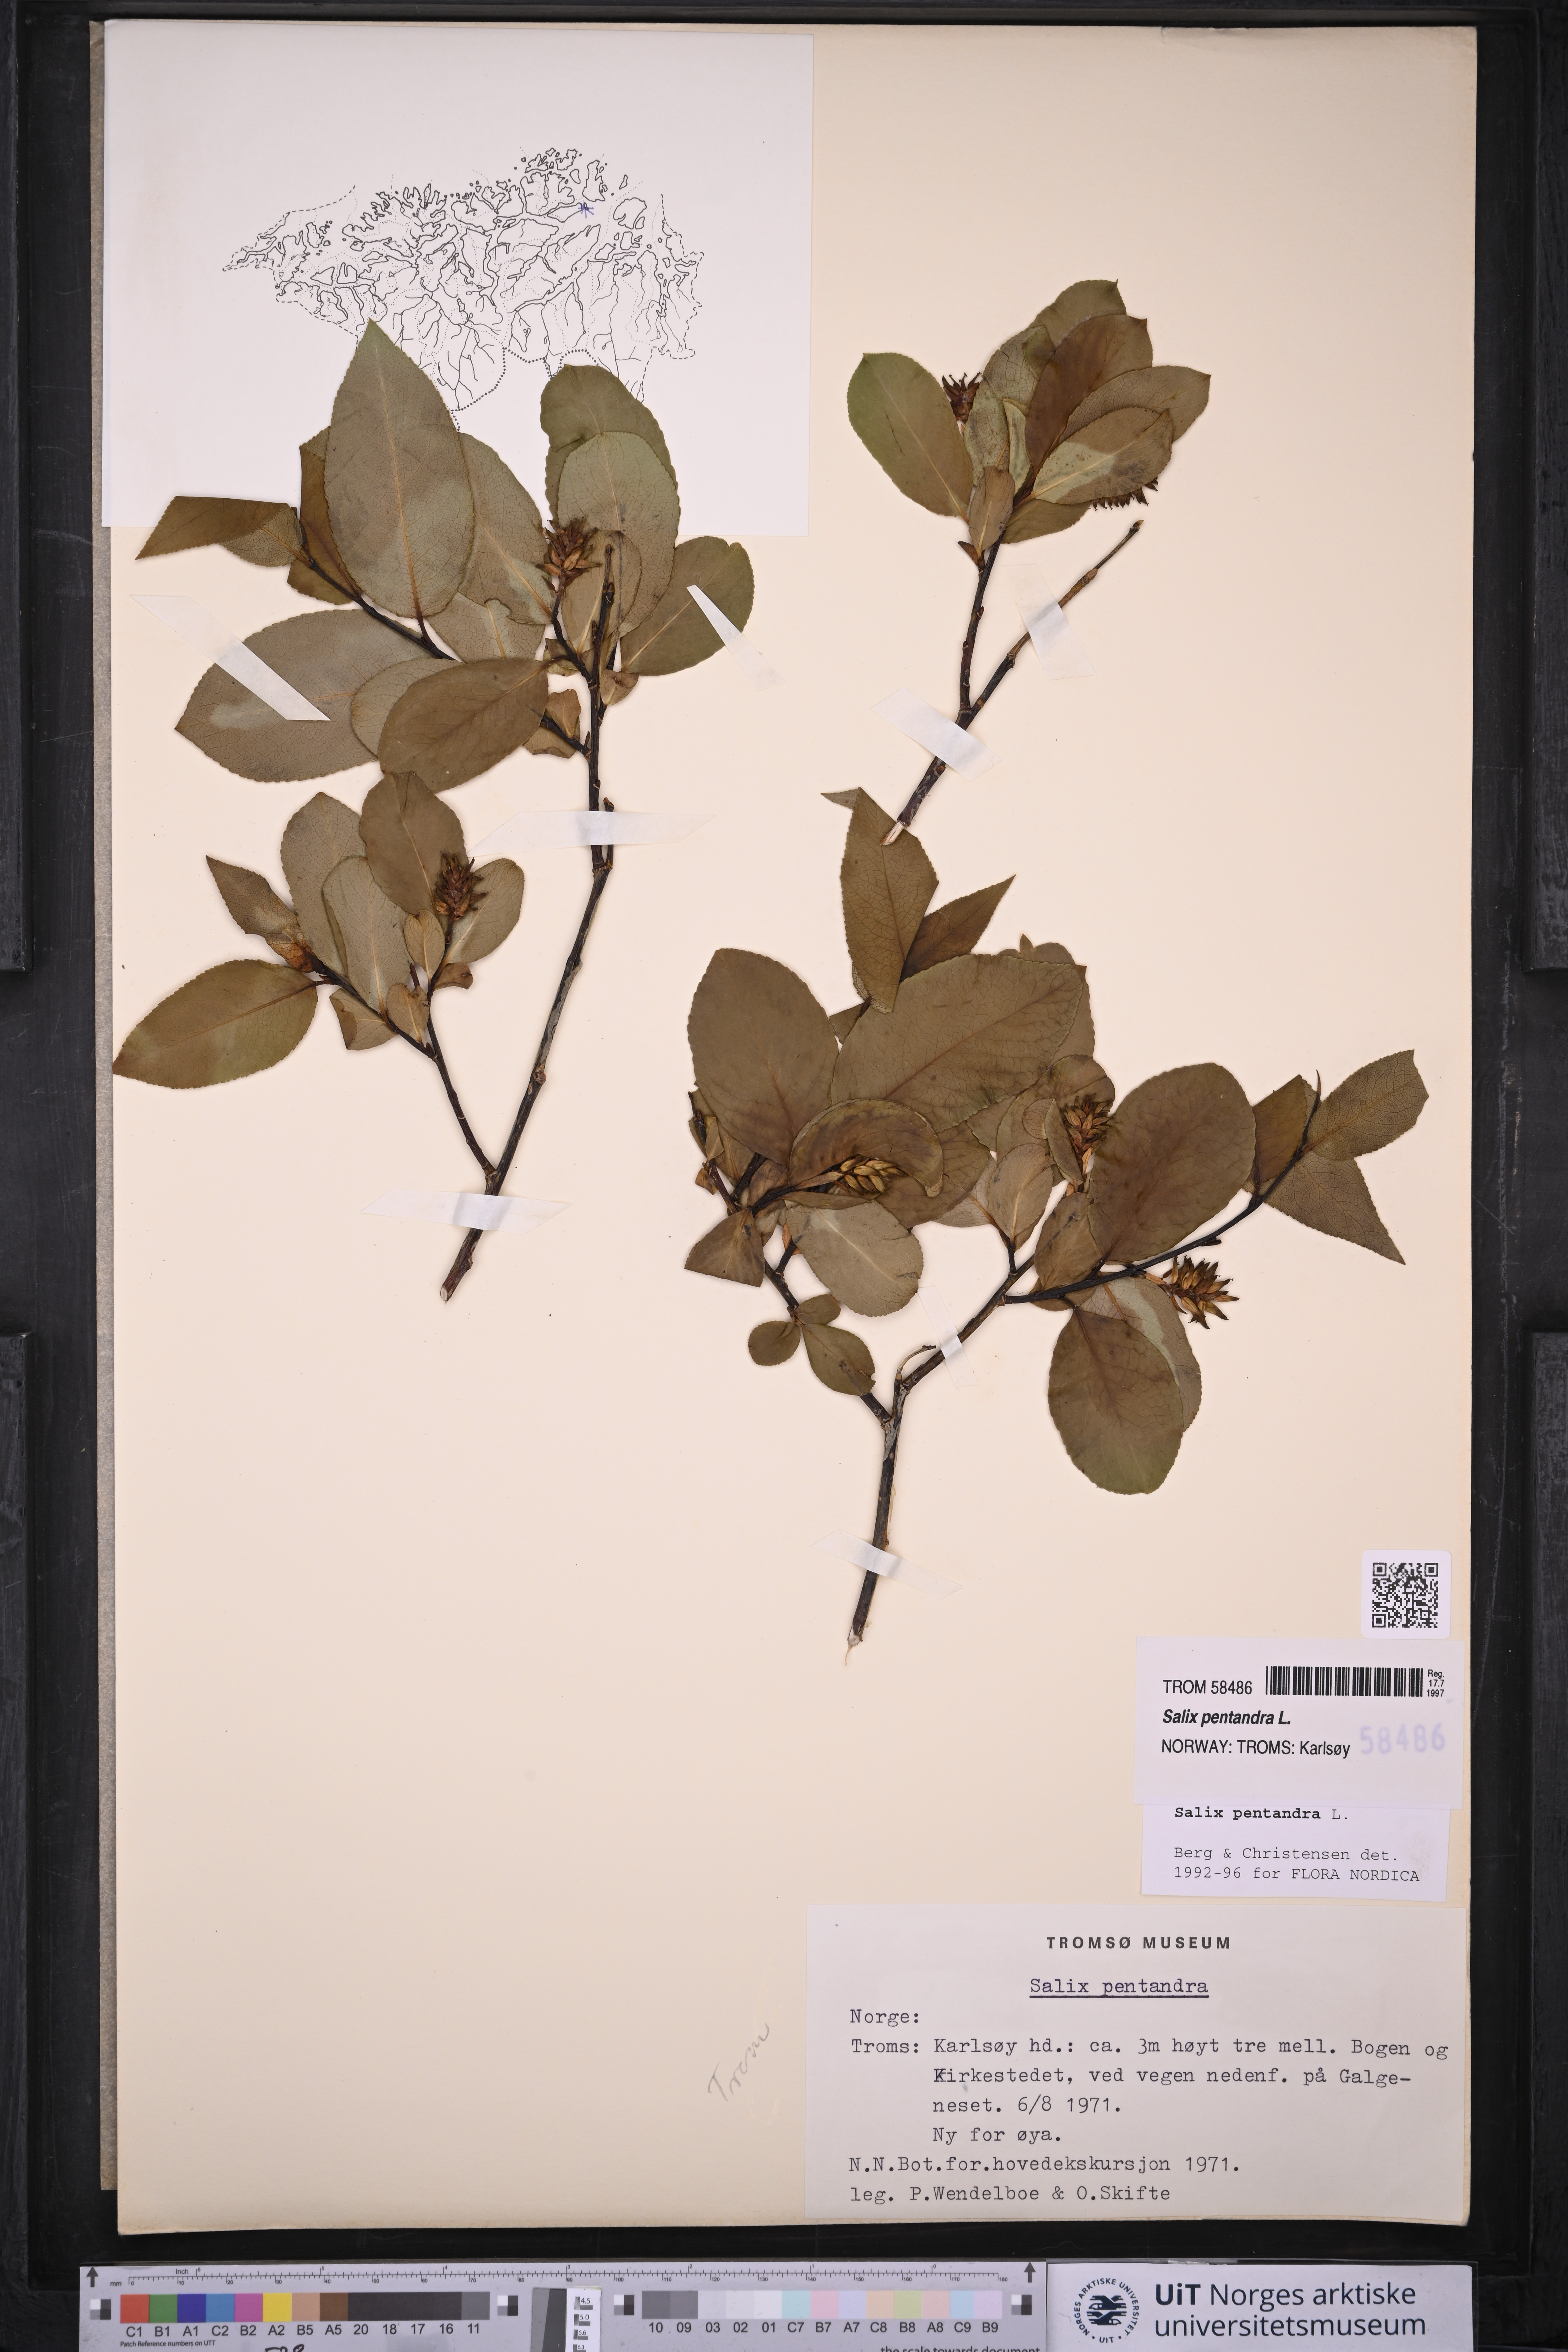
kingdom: Plantae
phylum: Tracheophyta
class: Magnoliopsida
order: Malpighiales
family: Salicaceae
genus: Salix
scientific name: Salix pentandra
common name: Bay willow
